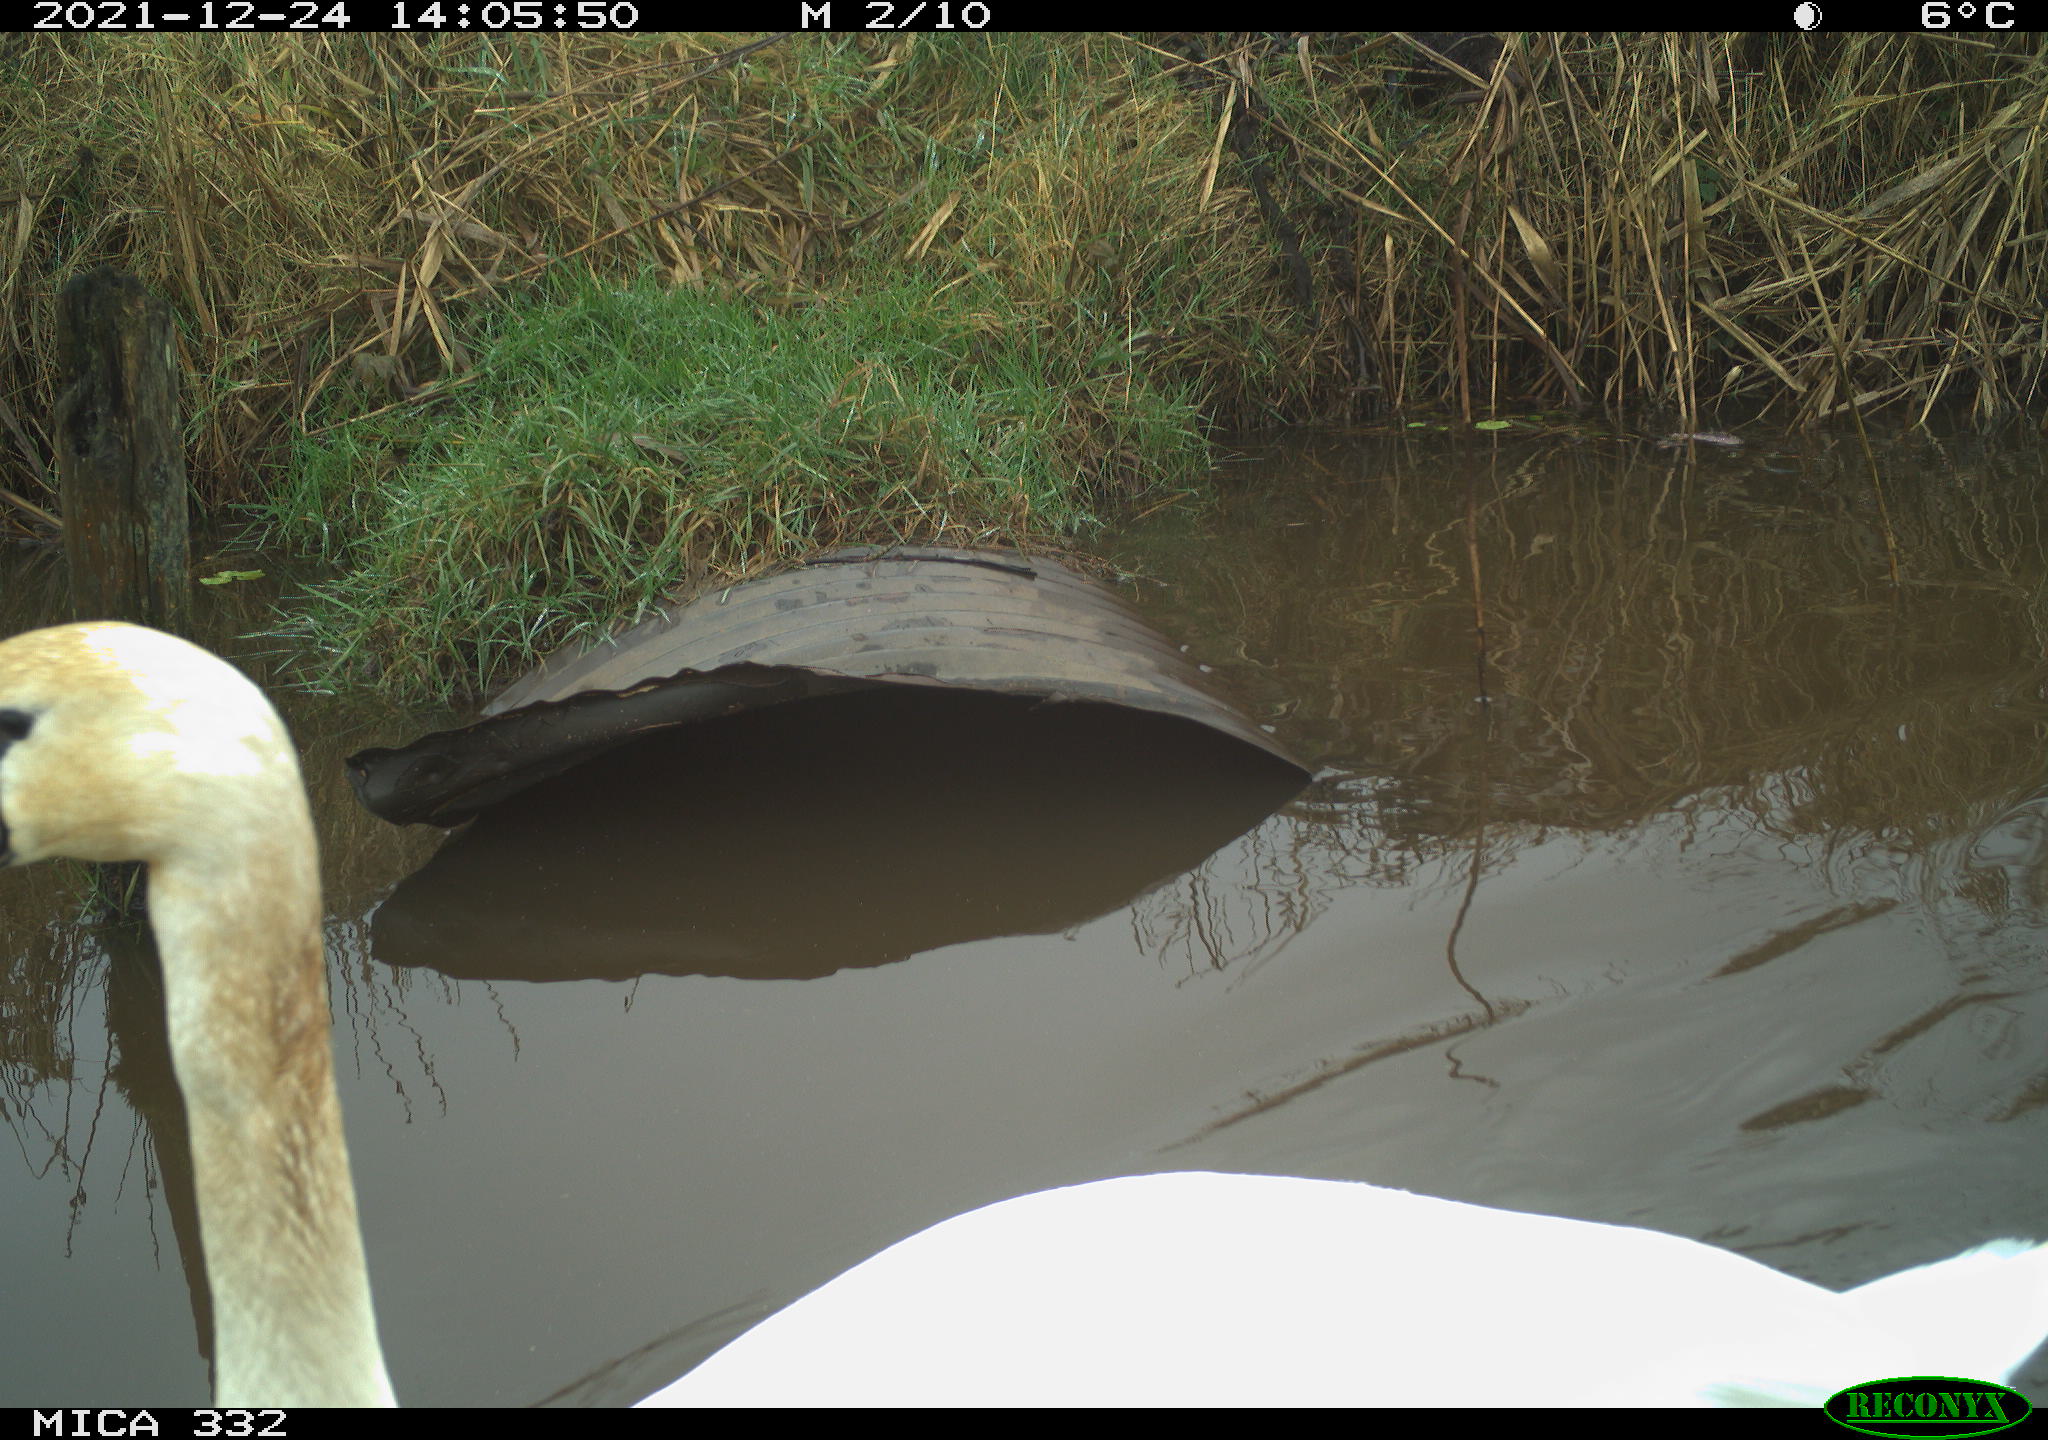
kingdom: Animalia
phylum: Chordata
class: Aves
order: Anseriformes
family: Anatidae
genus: Cygnus
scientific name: Cygnus olor
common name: Mute swan
